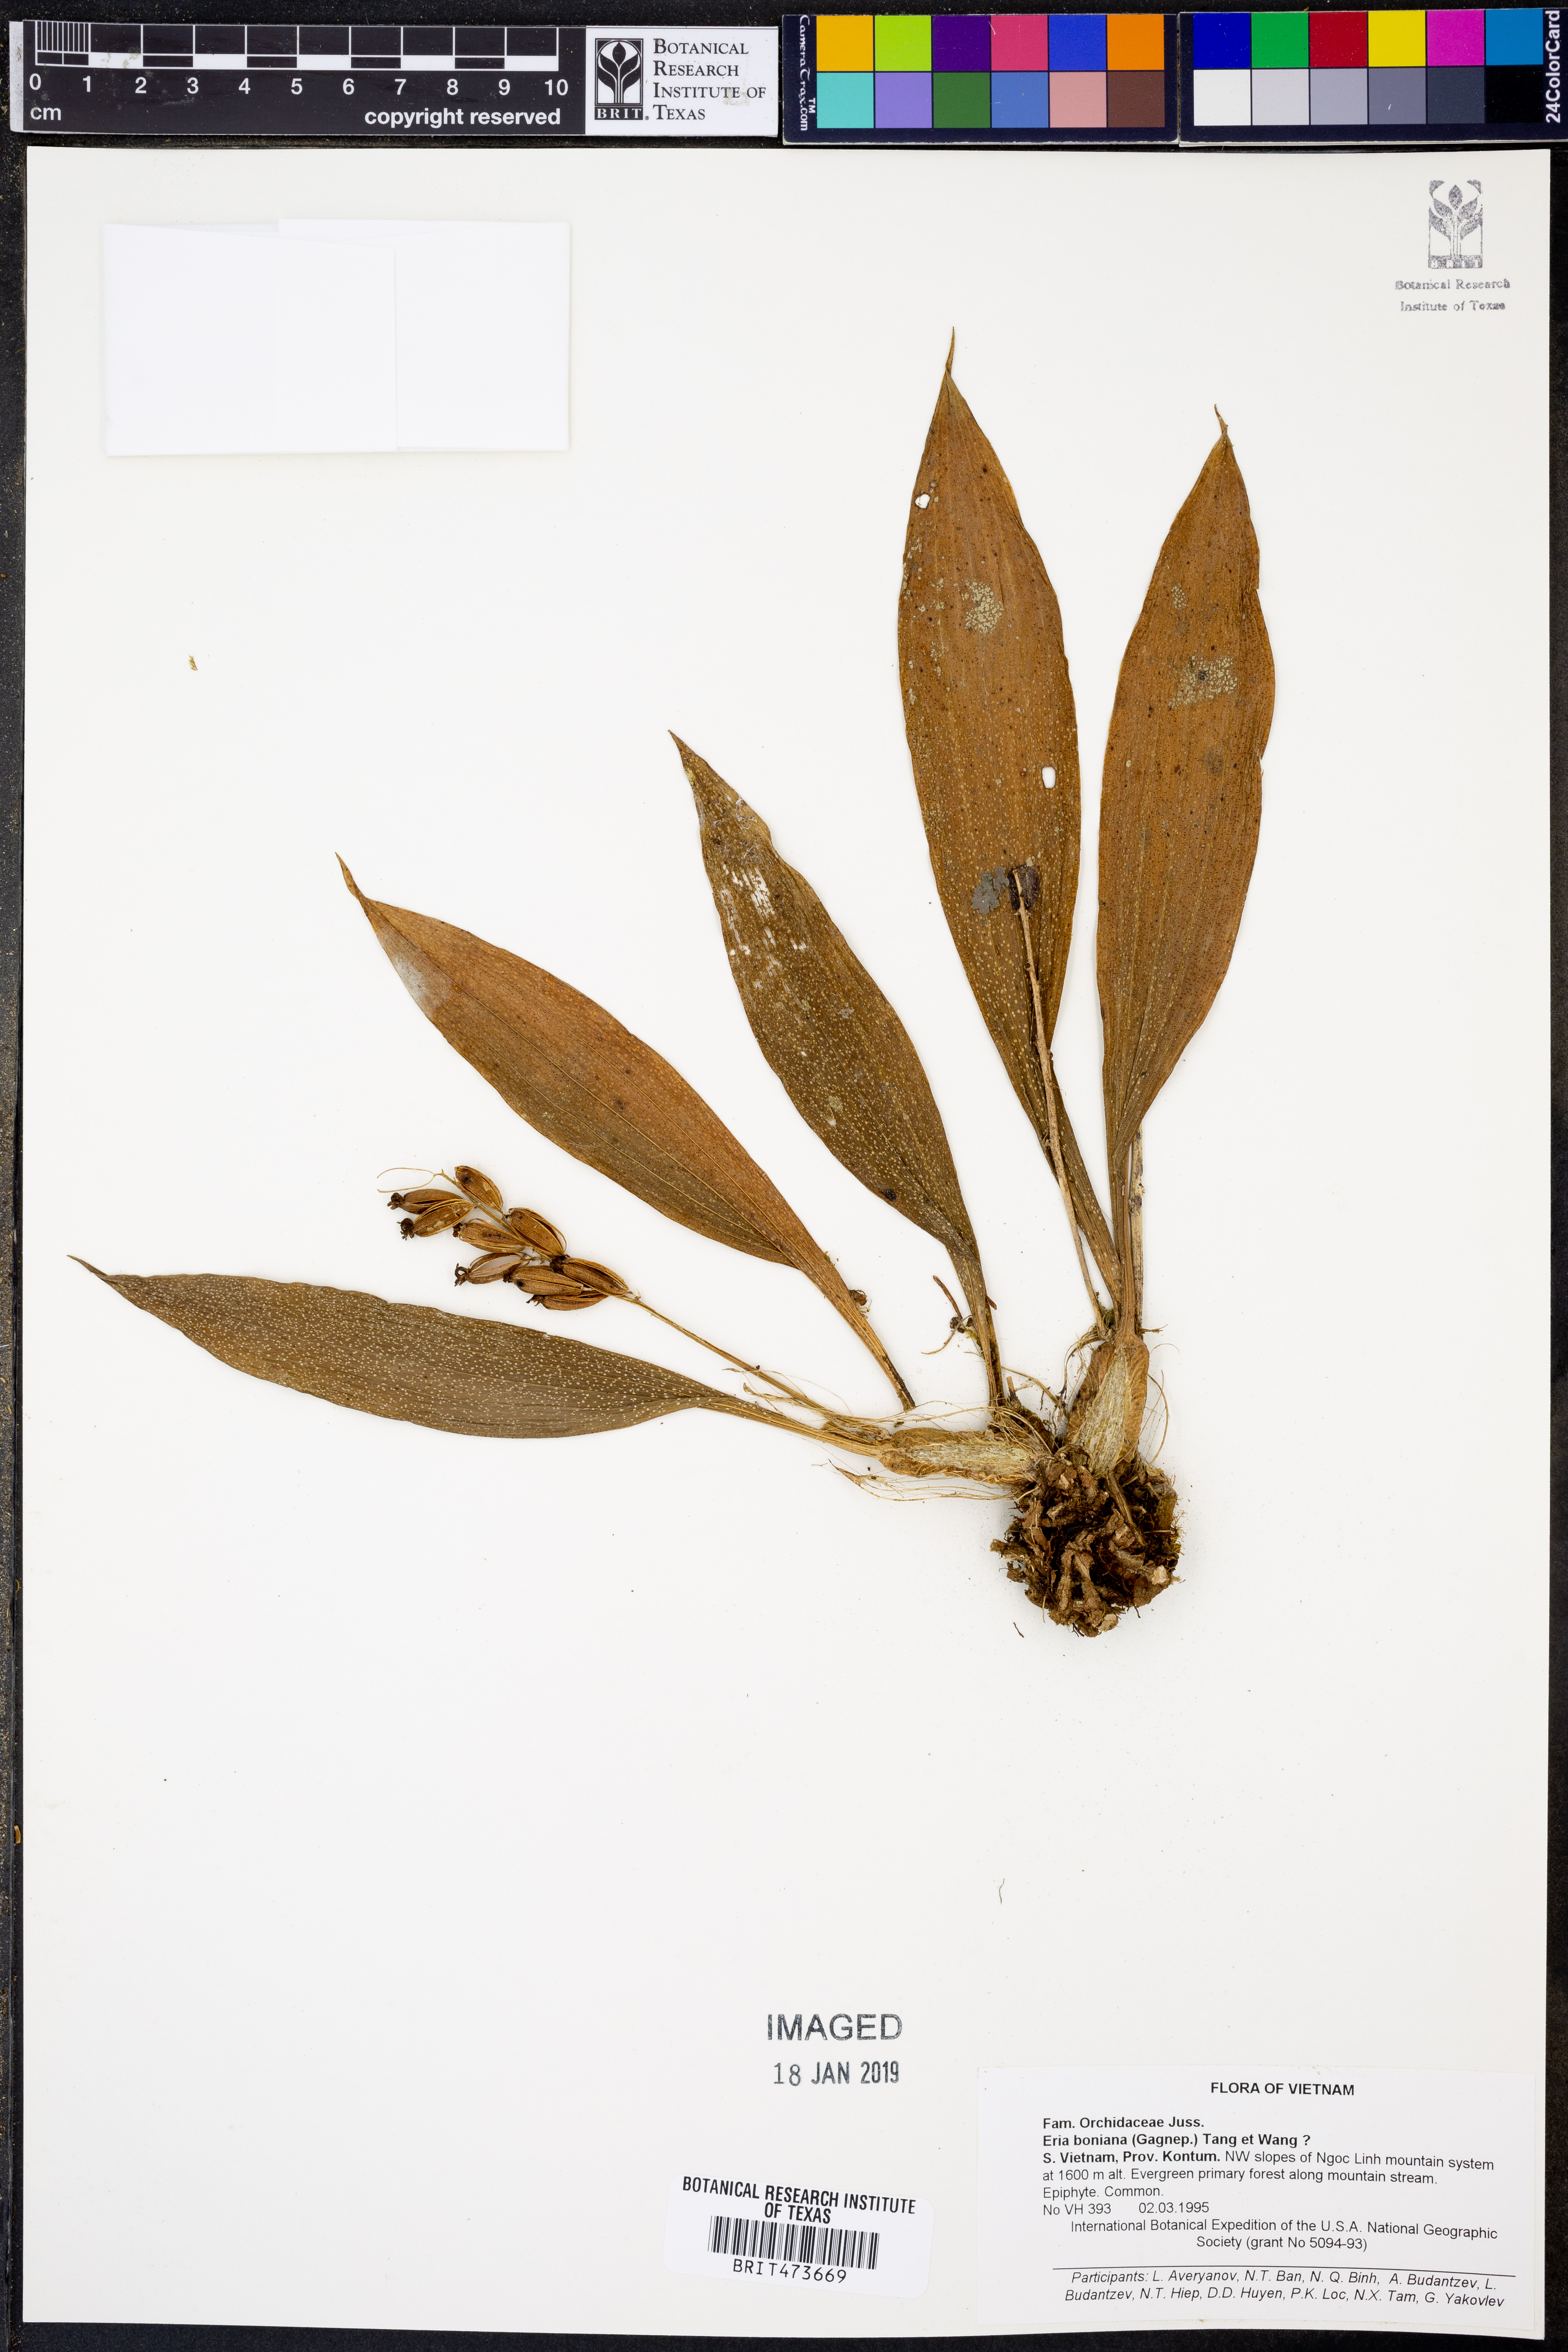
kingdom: Plantae
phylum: Tracheophyta
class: Liliopsida
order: Asparagales
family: Orchidaceae
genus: Eria
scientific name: Eria scabrilinguis
